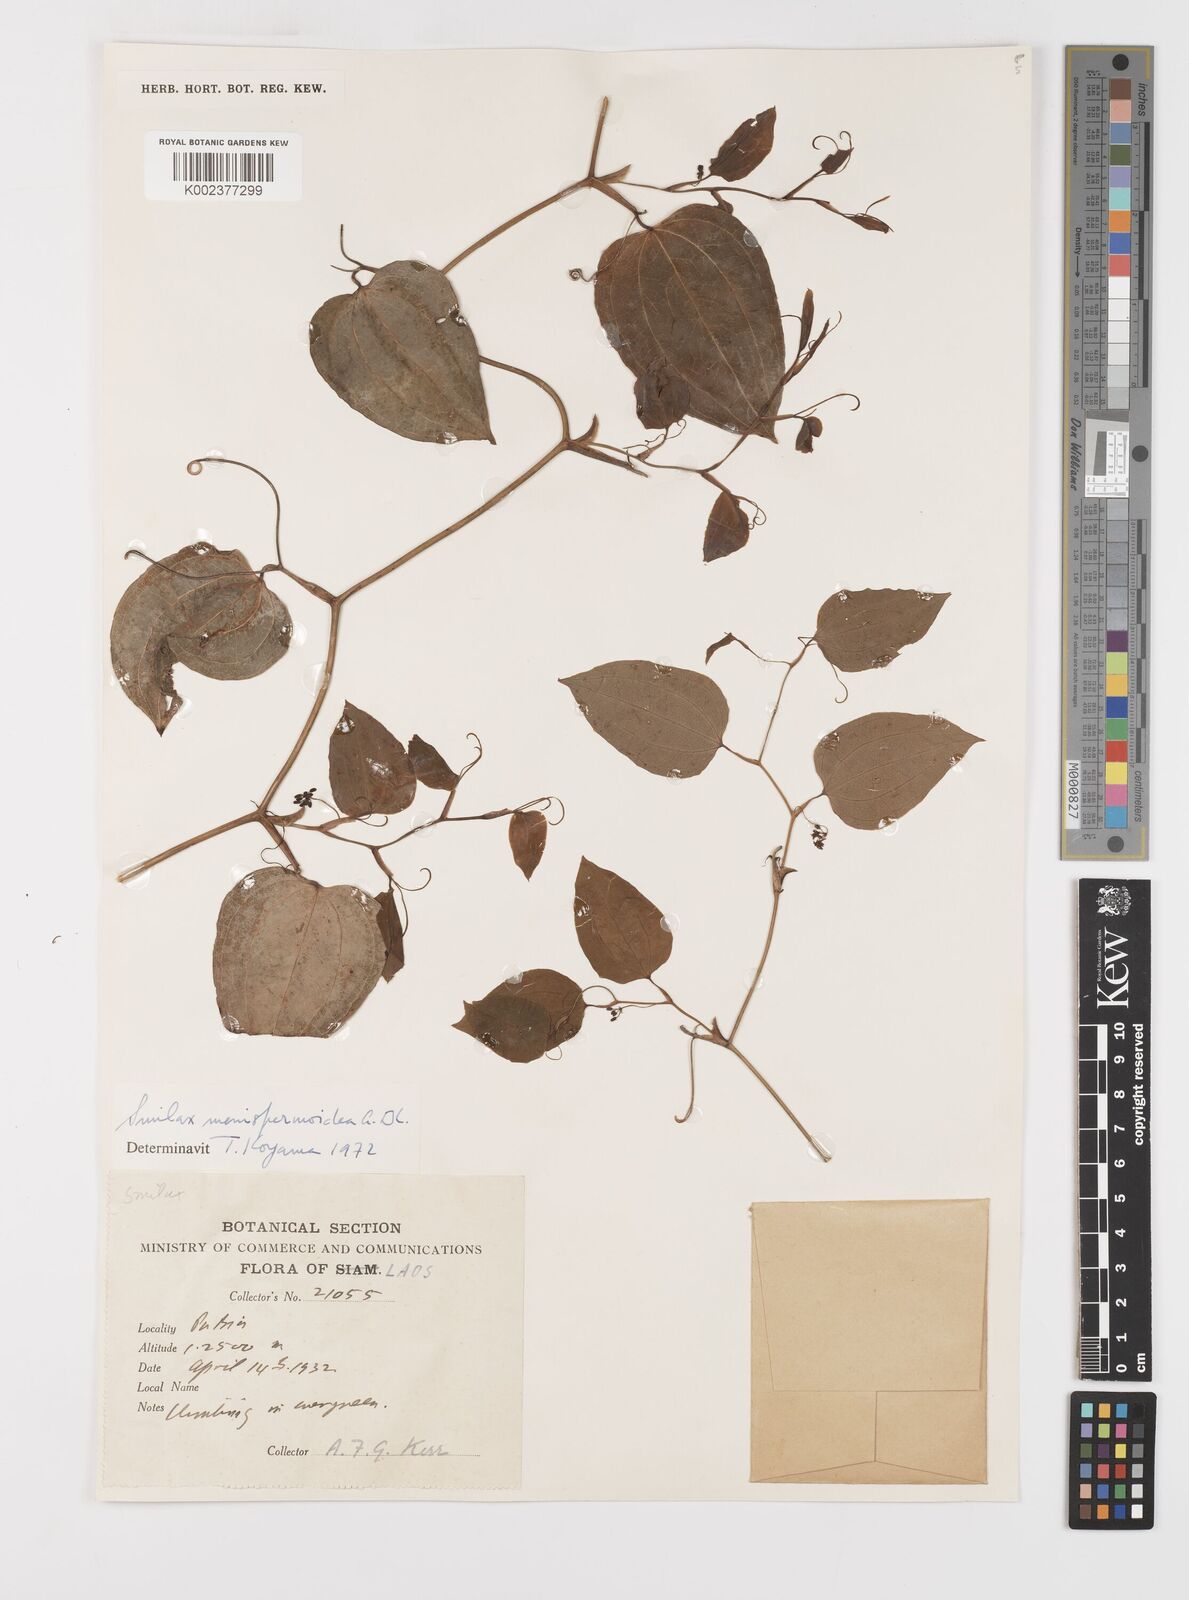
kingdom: Plantae
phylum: Tracheophyta
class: Liliopsida
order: Liliales
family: Smilacaceae
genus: Smilax
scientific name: Smilax menispermoidea
